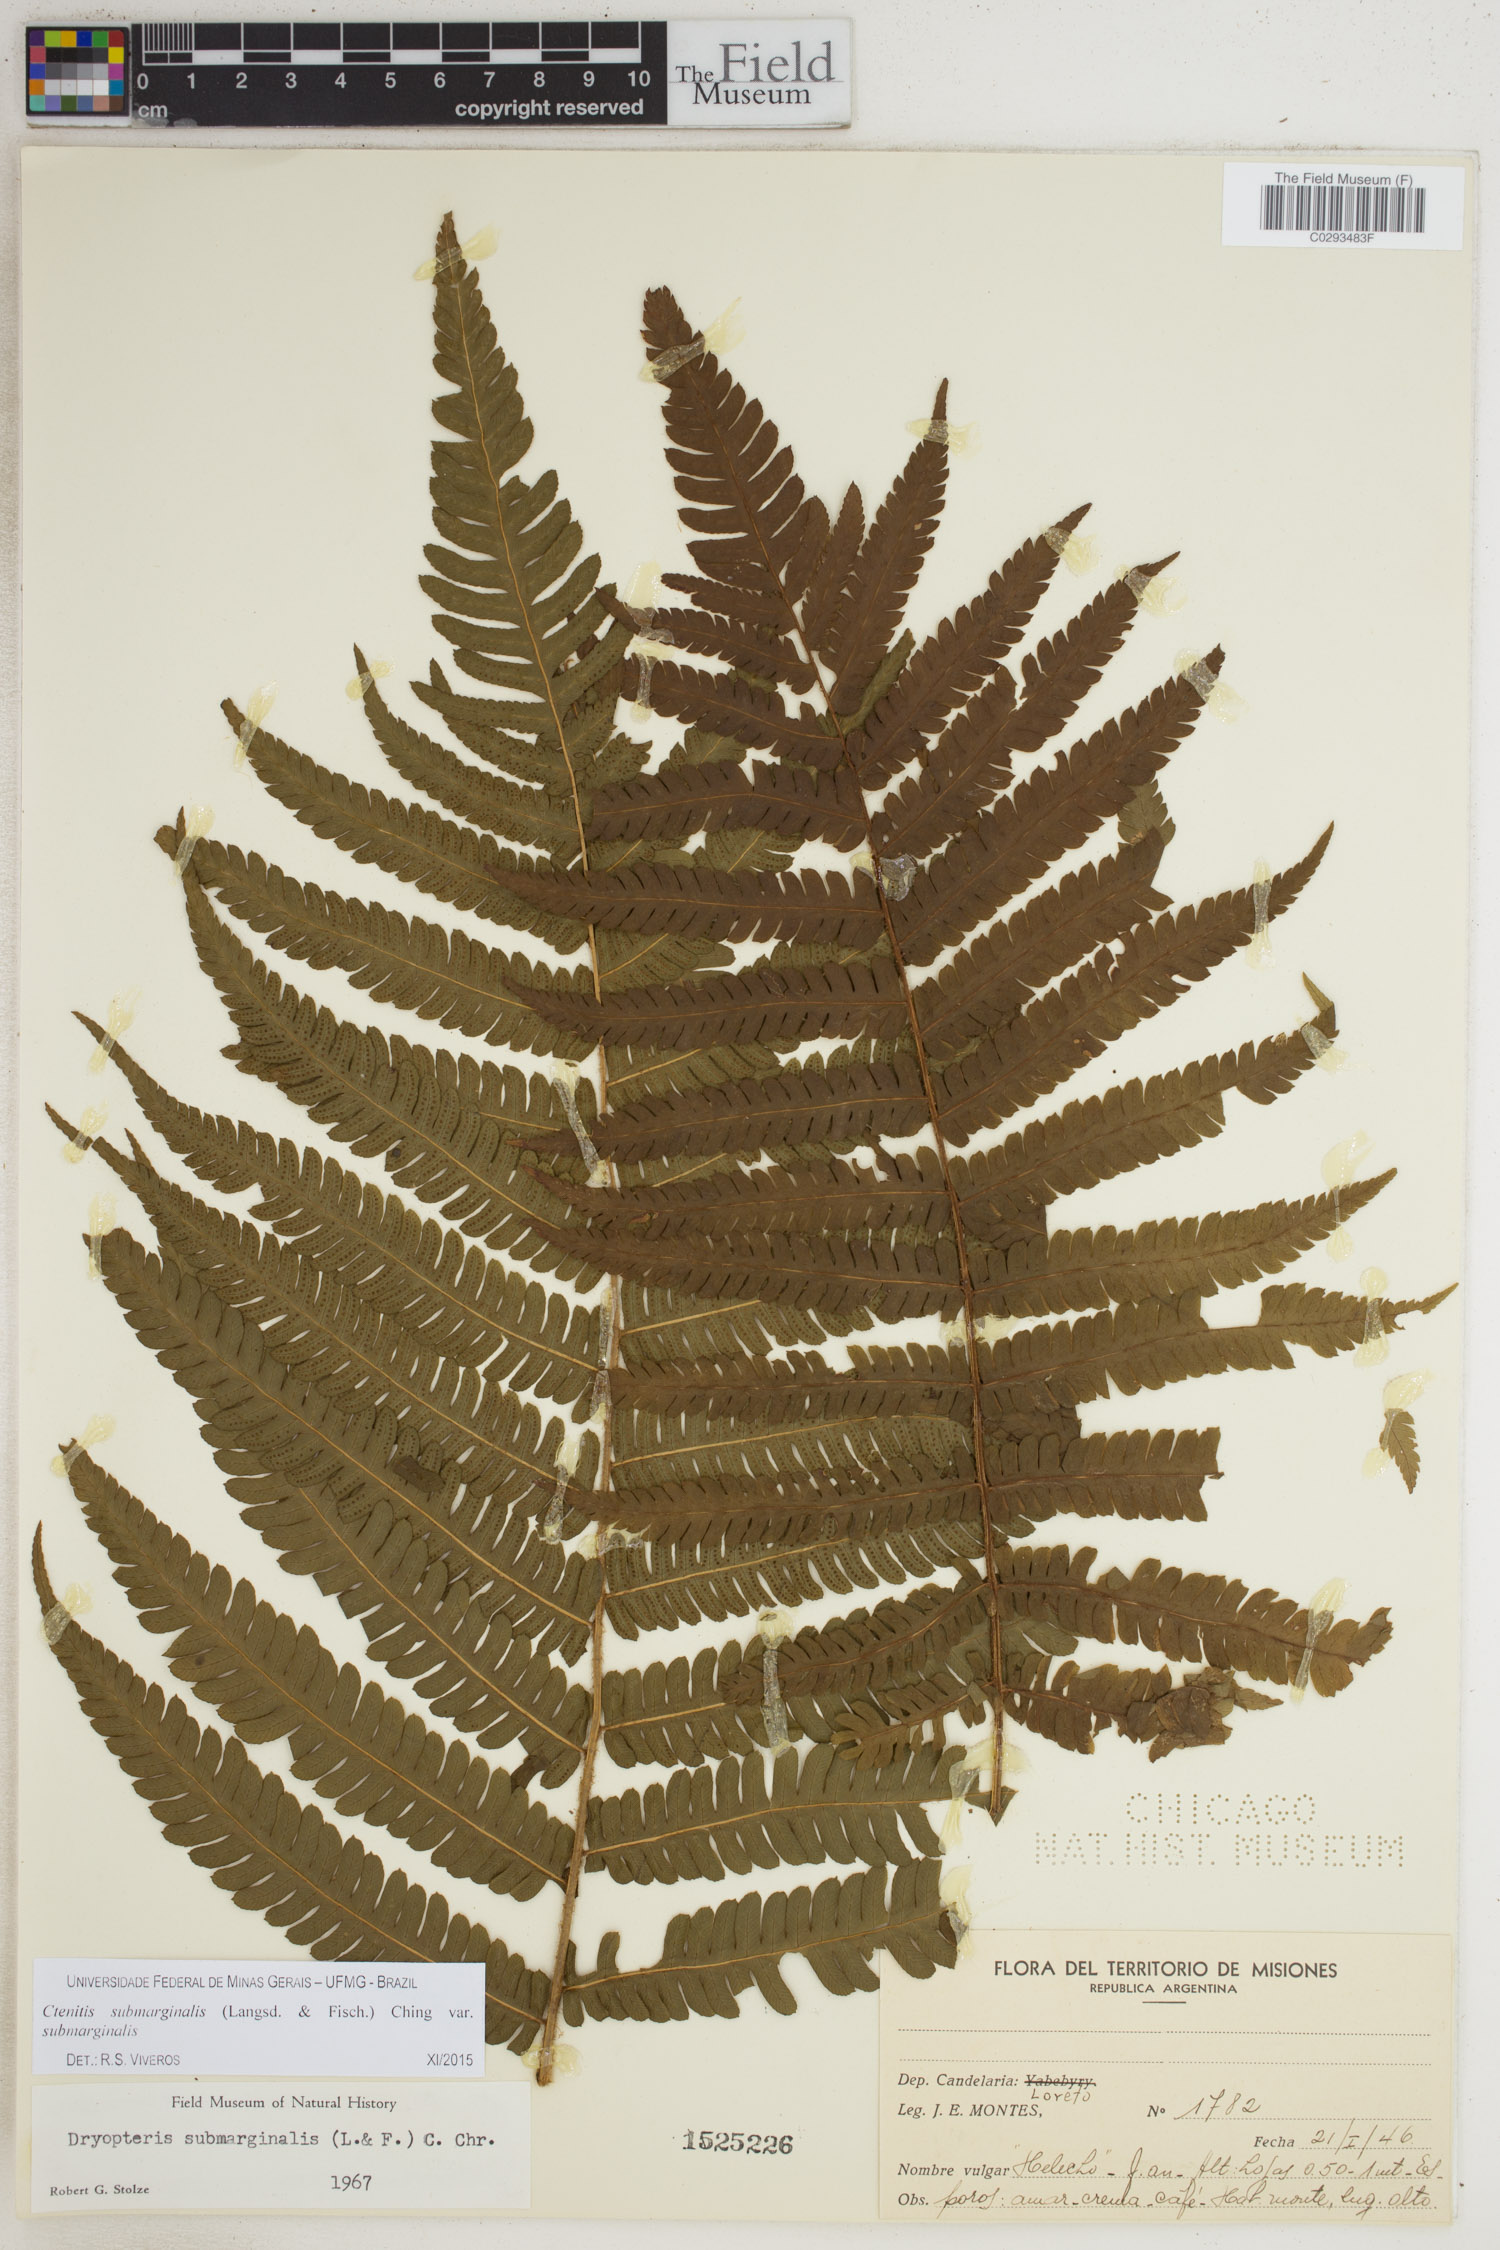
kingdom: Plantae
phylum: Tracheophyta
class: Polypodiopsida
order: Polypodiales
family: Dryopteridaceae
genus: Ctenitis
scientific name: Ctenitis submarginalis
